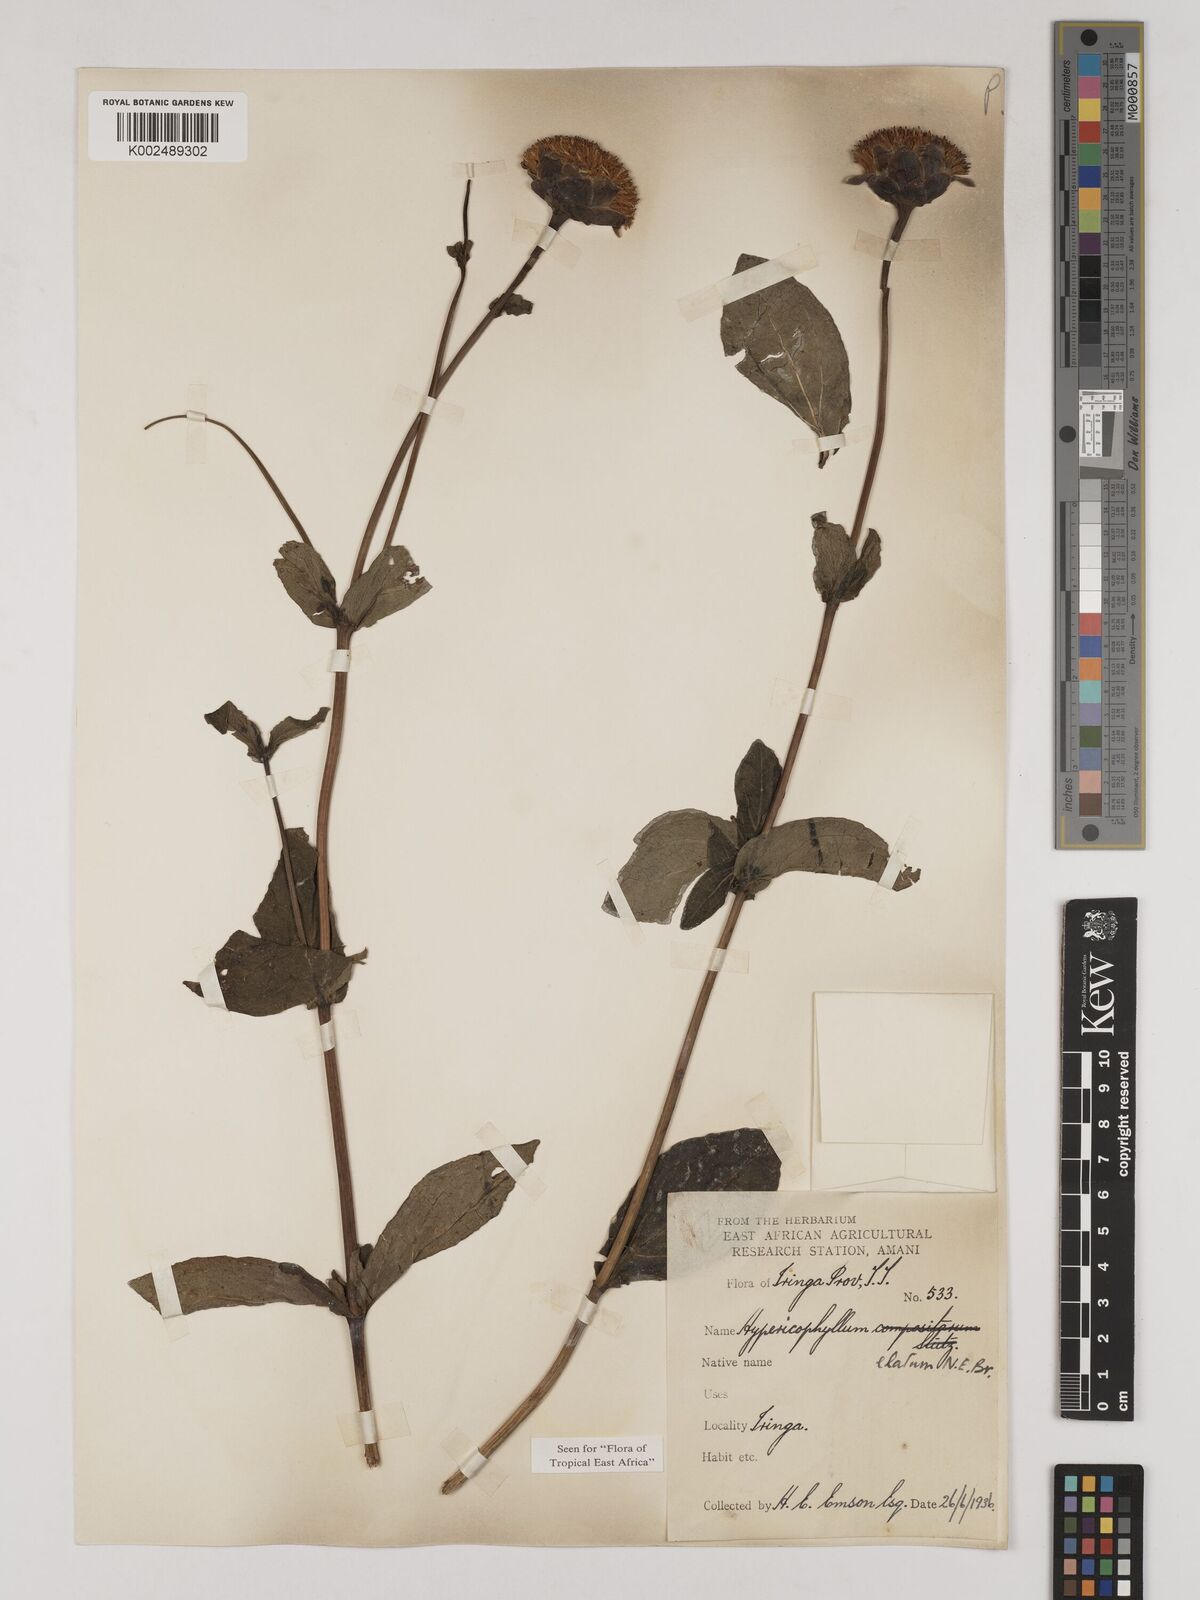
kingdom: Plantae
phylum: Tracheophyta
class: Magnoliopsida
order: Asterales
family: Asteraceae
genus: Hypericophyllum
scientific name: Hypericophyllum elatum
